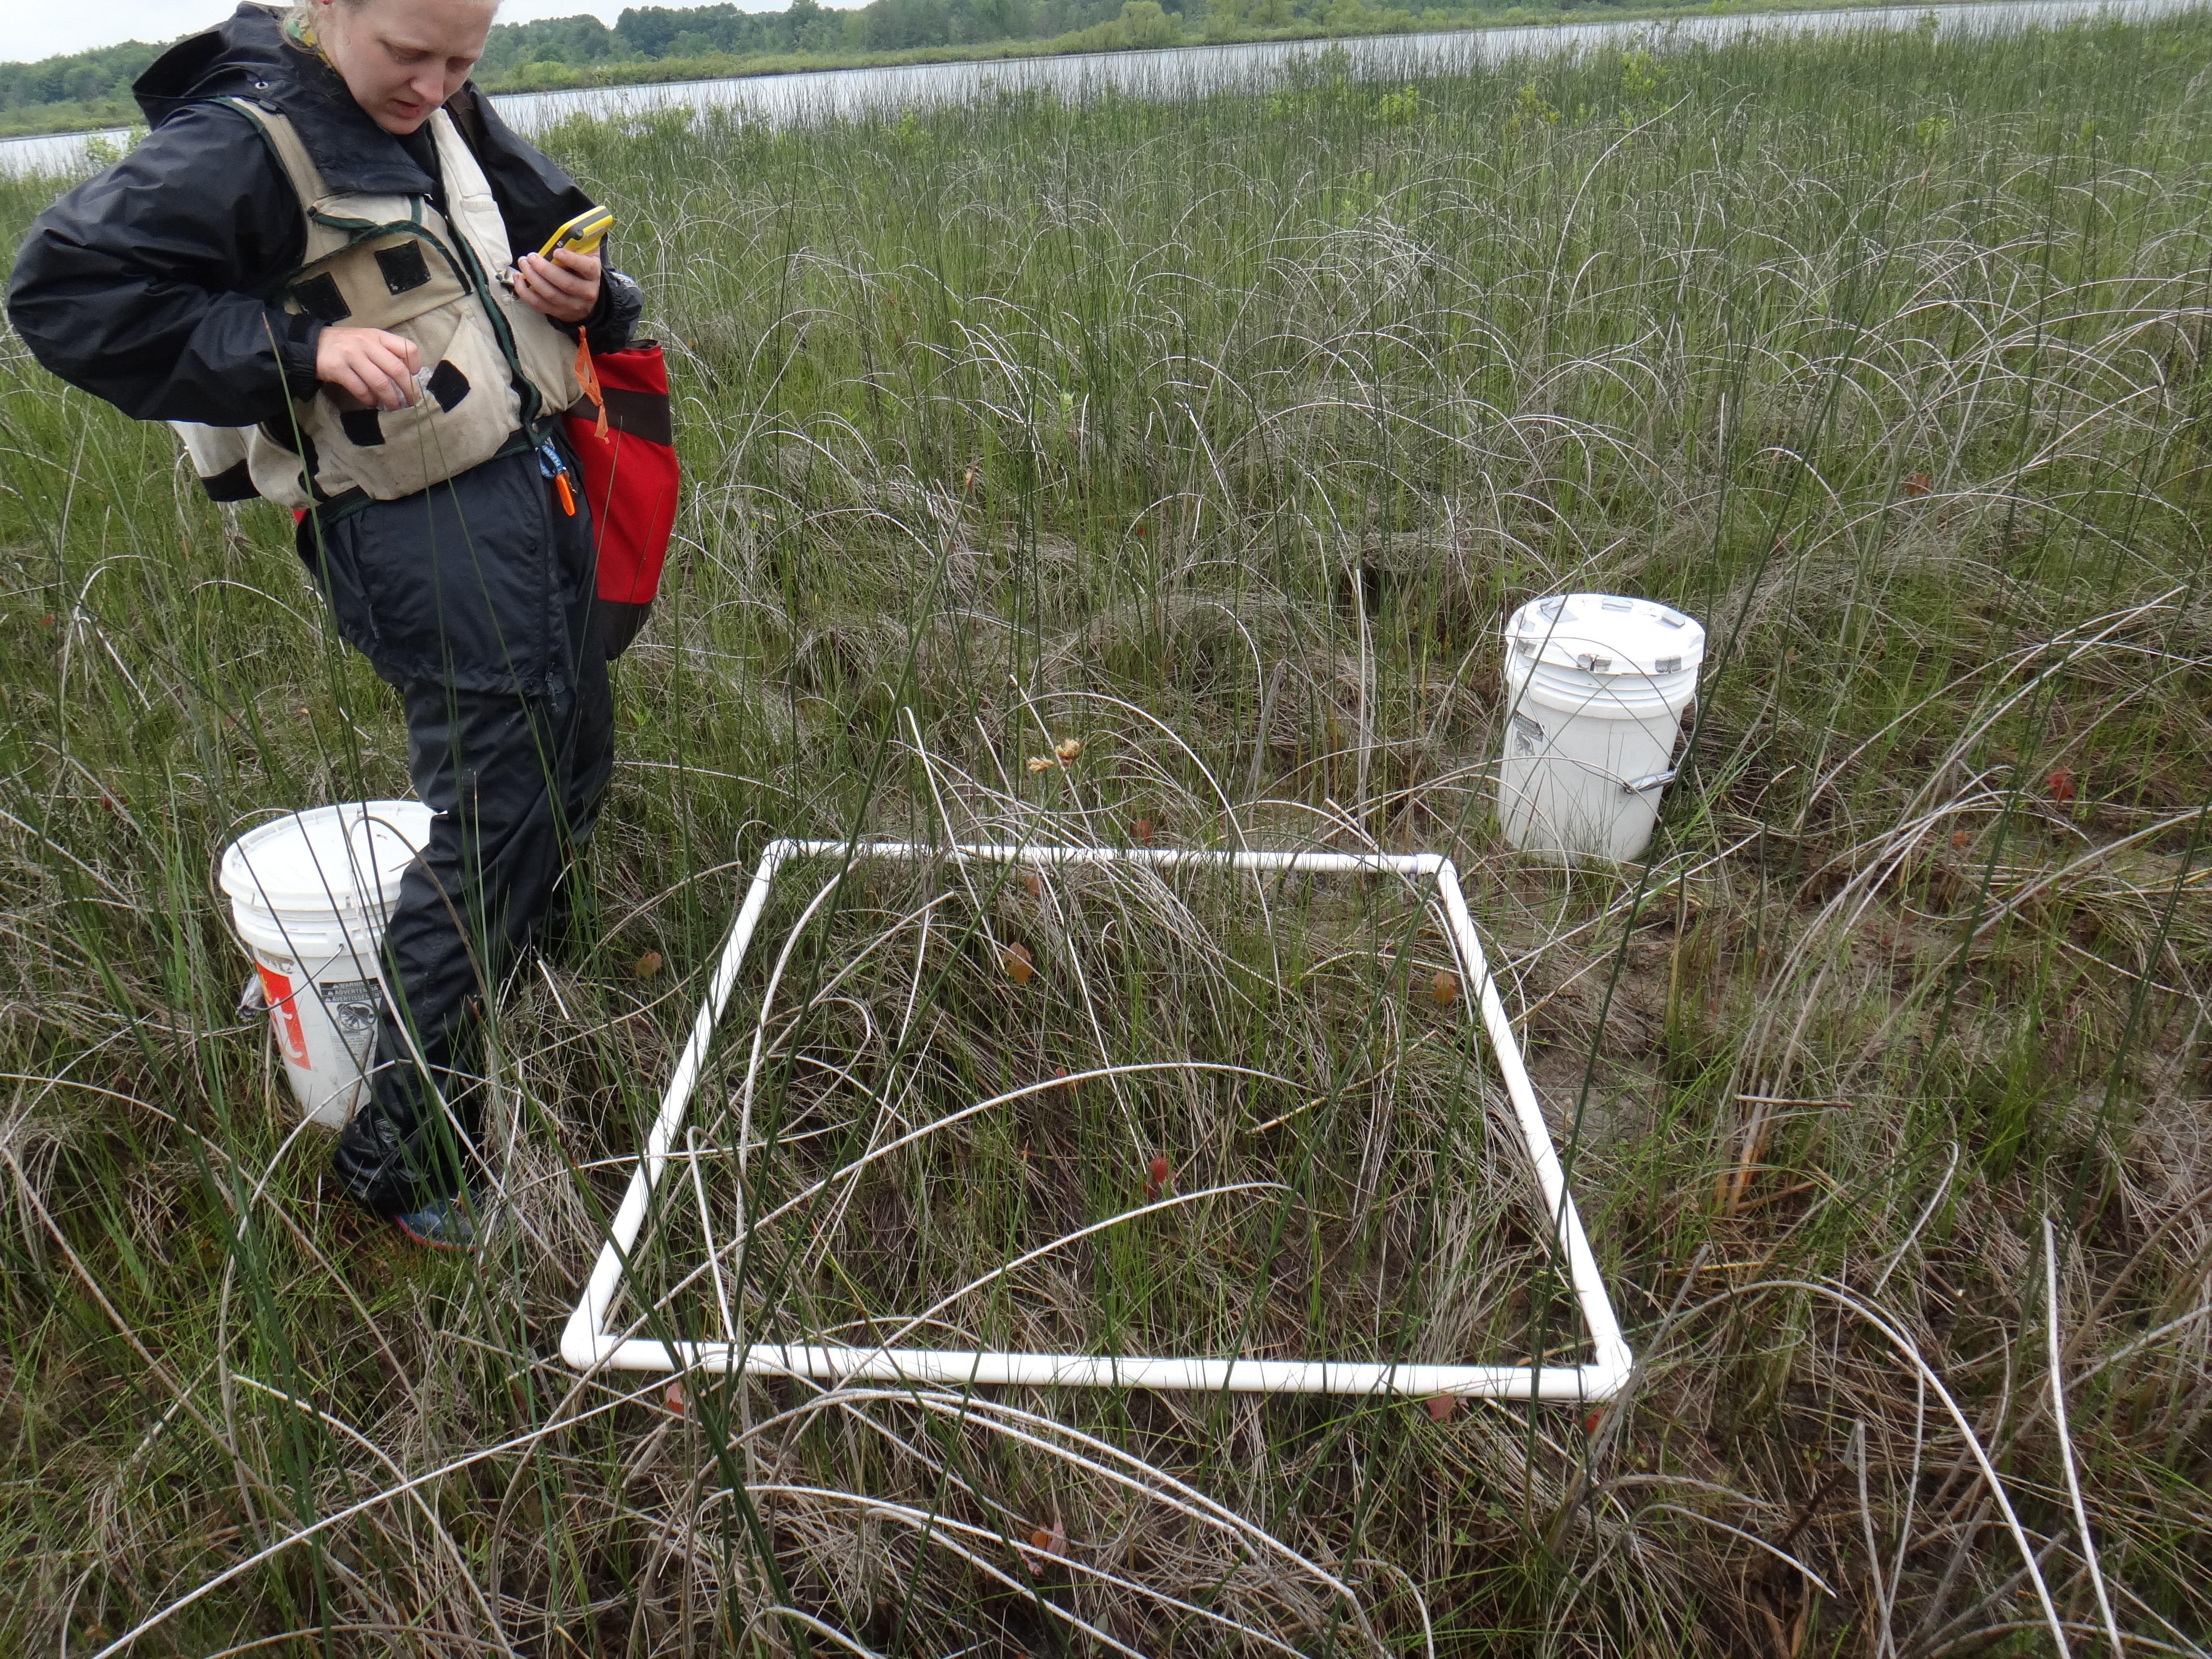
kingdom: Plantae
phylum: Tracheophyta
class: Magnoliopsida
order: Ericales
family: Primulaceae
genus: Lysimachia
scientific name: Lysimachia thyrsiflora
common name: Tufted loosestrife
